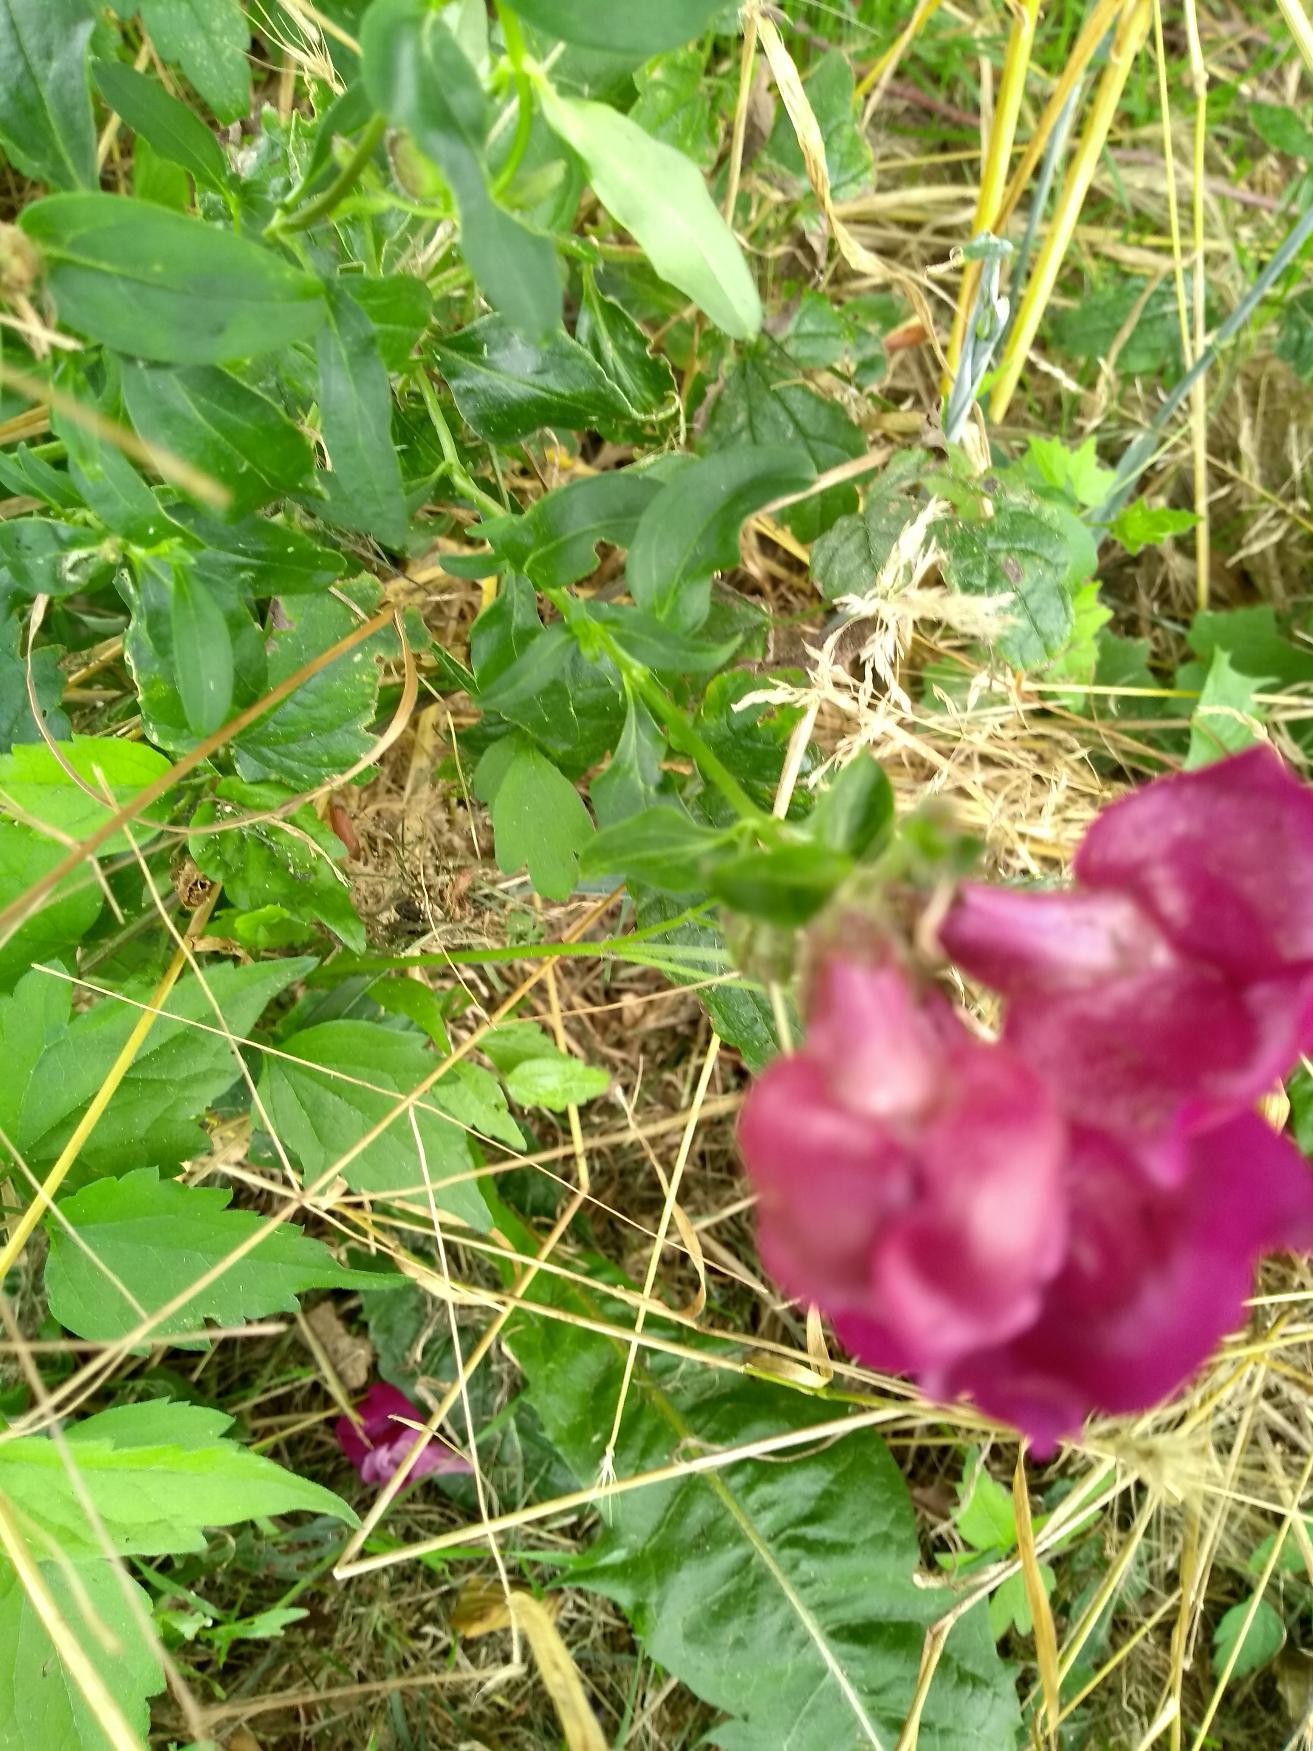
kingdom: Plantae
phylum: Tracheophyta
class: Magnoliopsida
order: Lamiales
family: Plantaginaceae
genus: Antirrhinum
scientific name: Antirrhinum majus
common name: Have-løvemund
